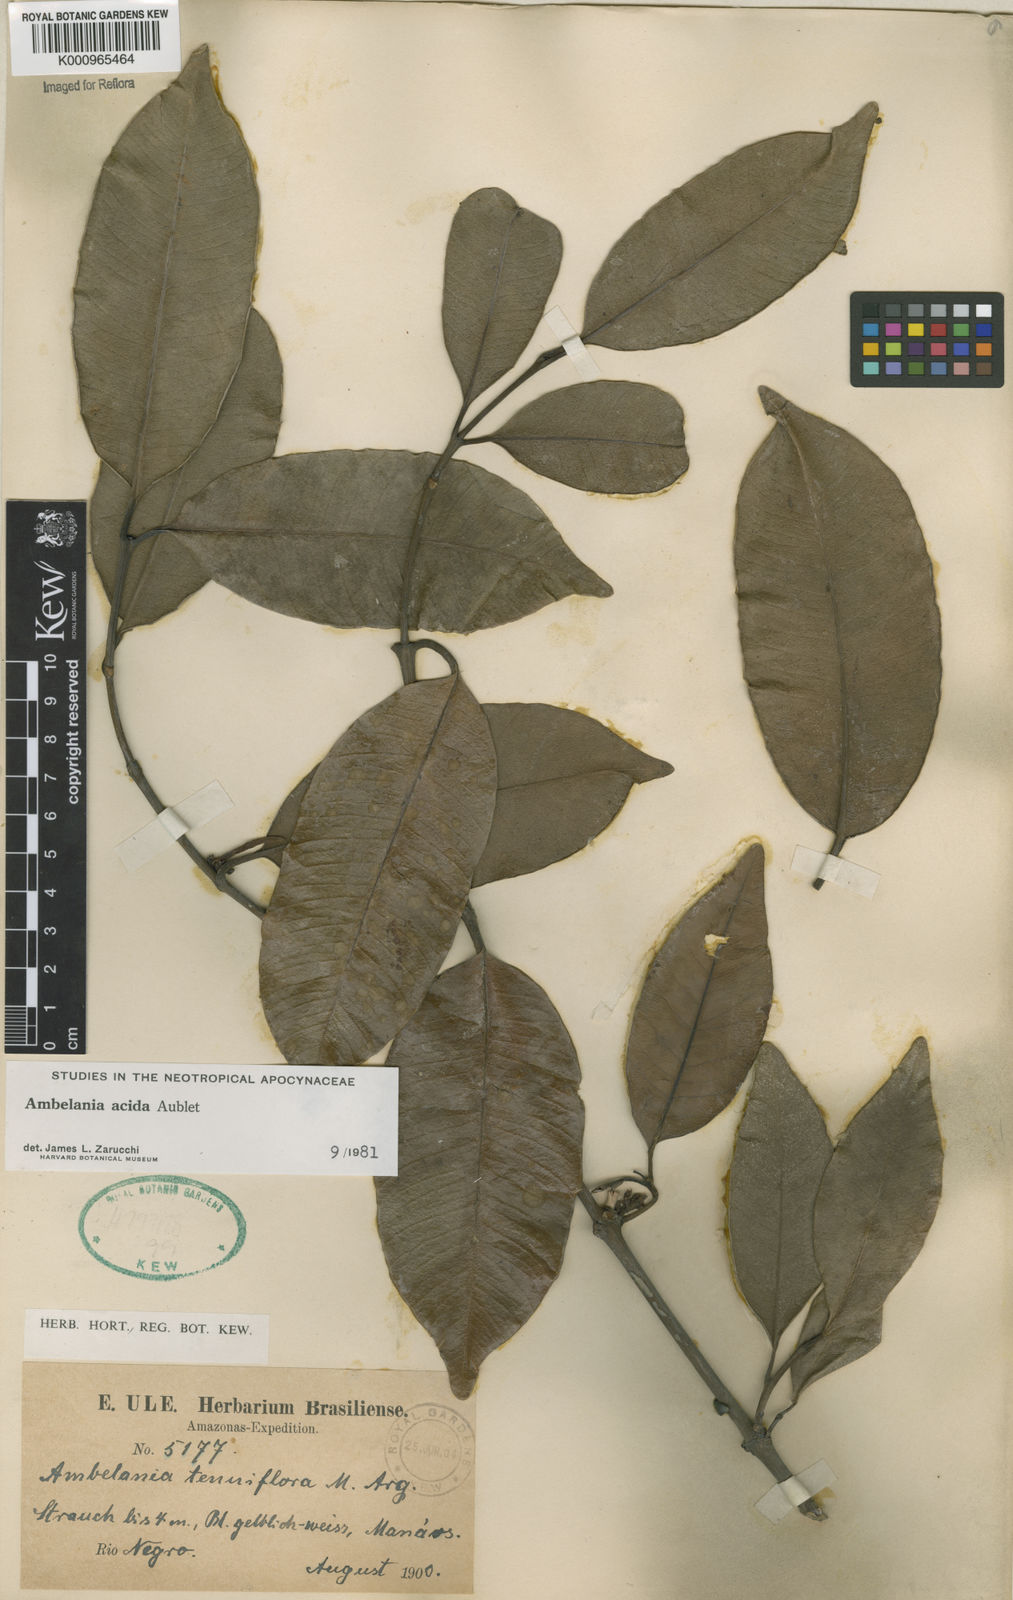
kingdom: Plantae
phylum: Tracheophyta
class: Magnoliopsida
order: Gentianales
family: Apocynaceae
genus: Ambelania
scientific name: Ambelania acida
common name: Bagasse
